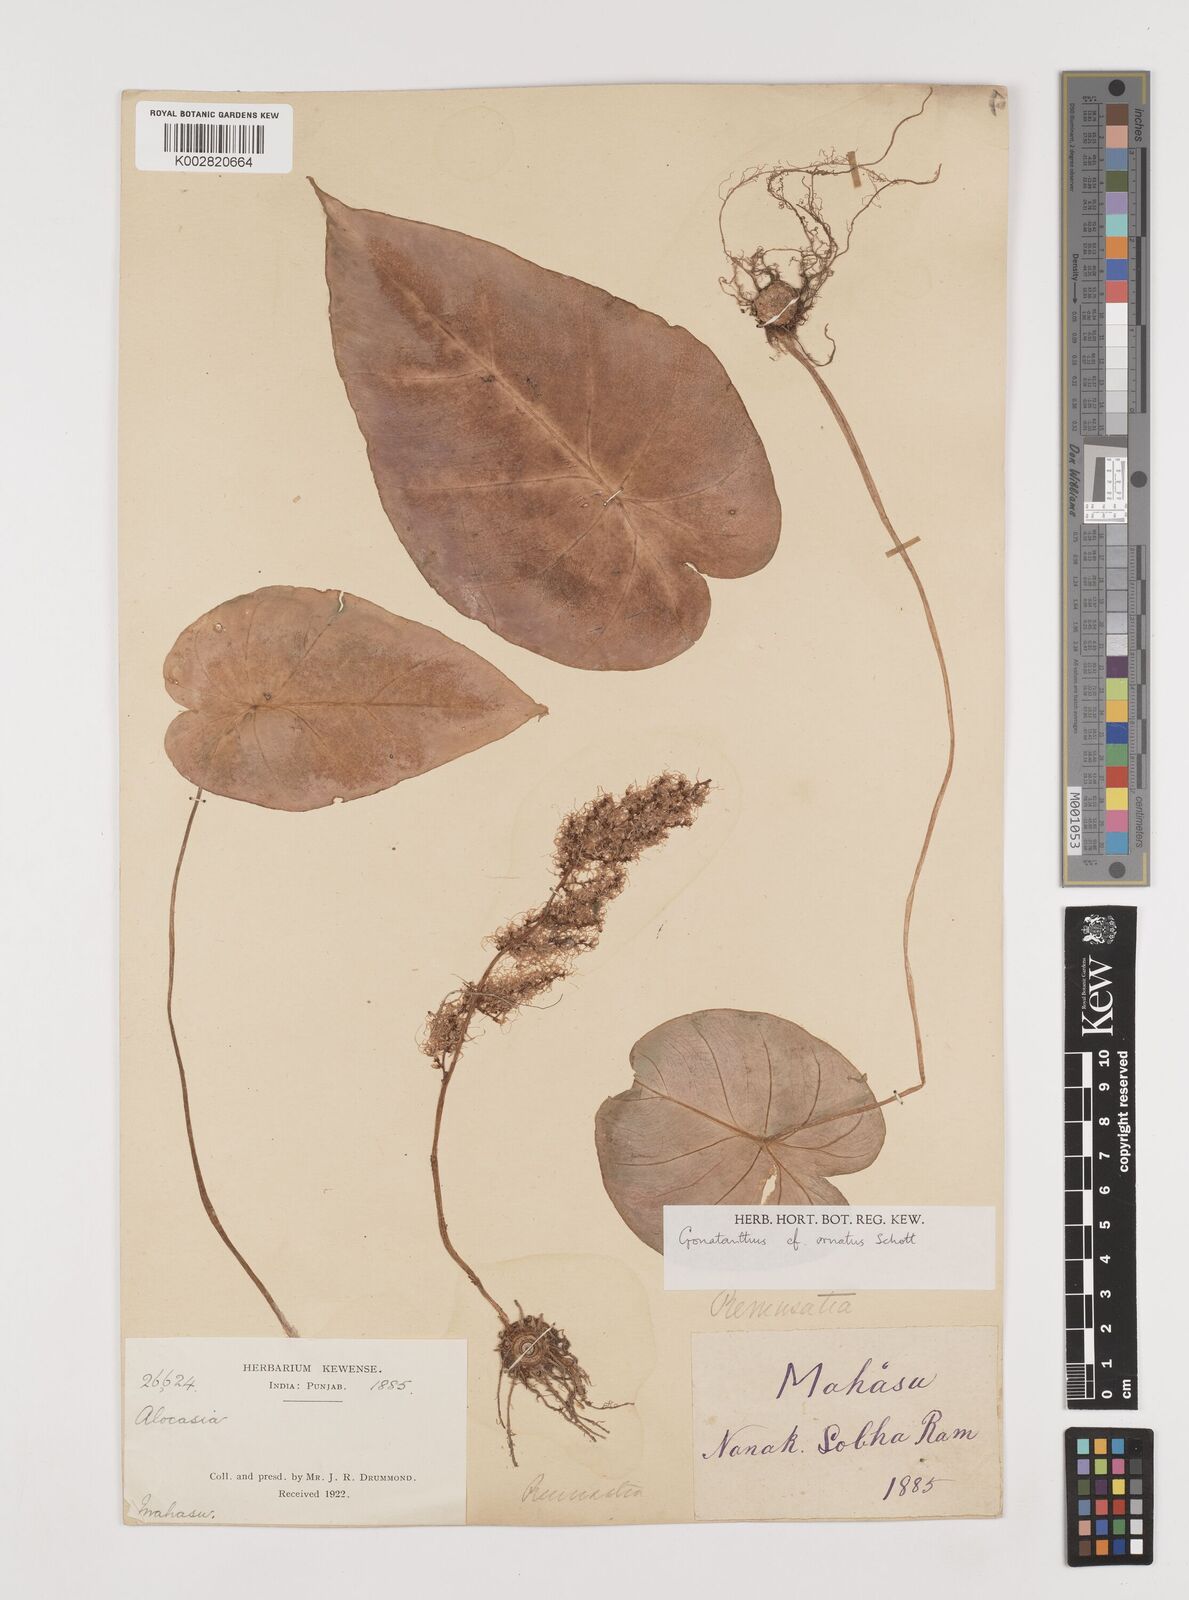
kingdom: Plantae
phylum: Tracheophyta
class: Liliopsida
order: Alismatales
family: Araceae
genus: Remusatia
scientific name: Remusatia hookeriana
